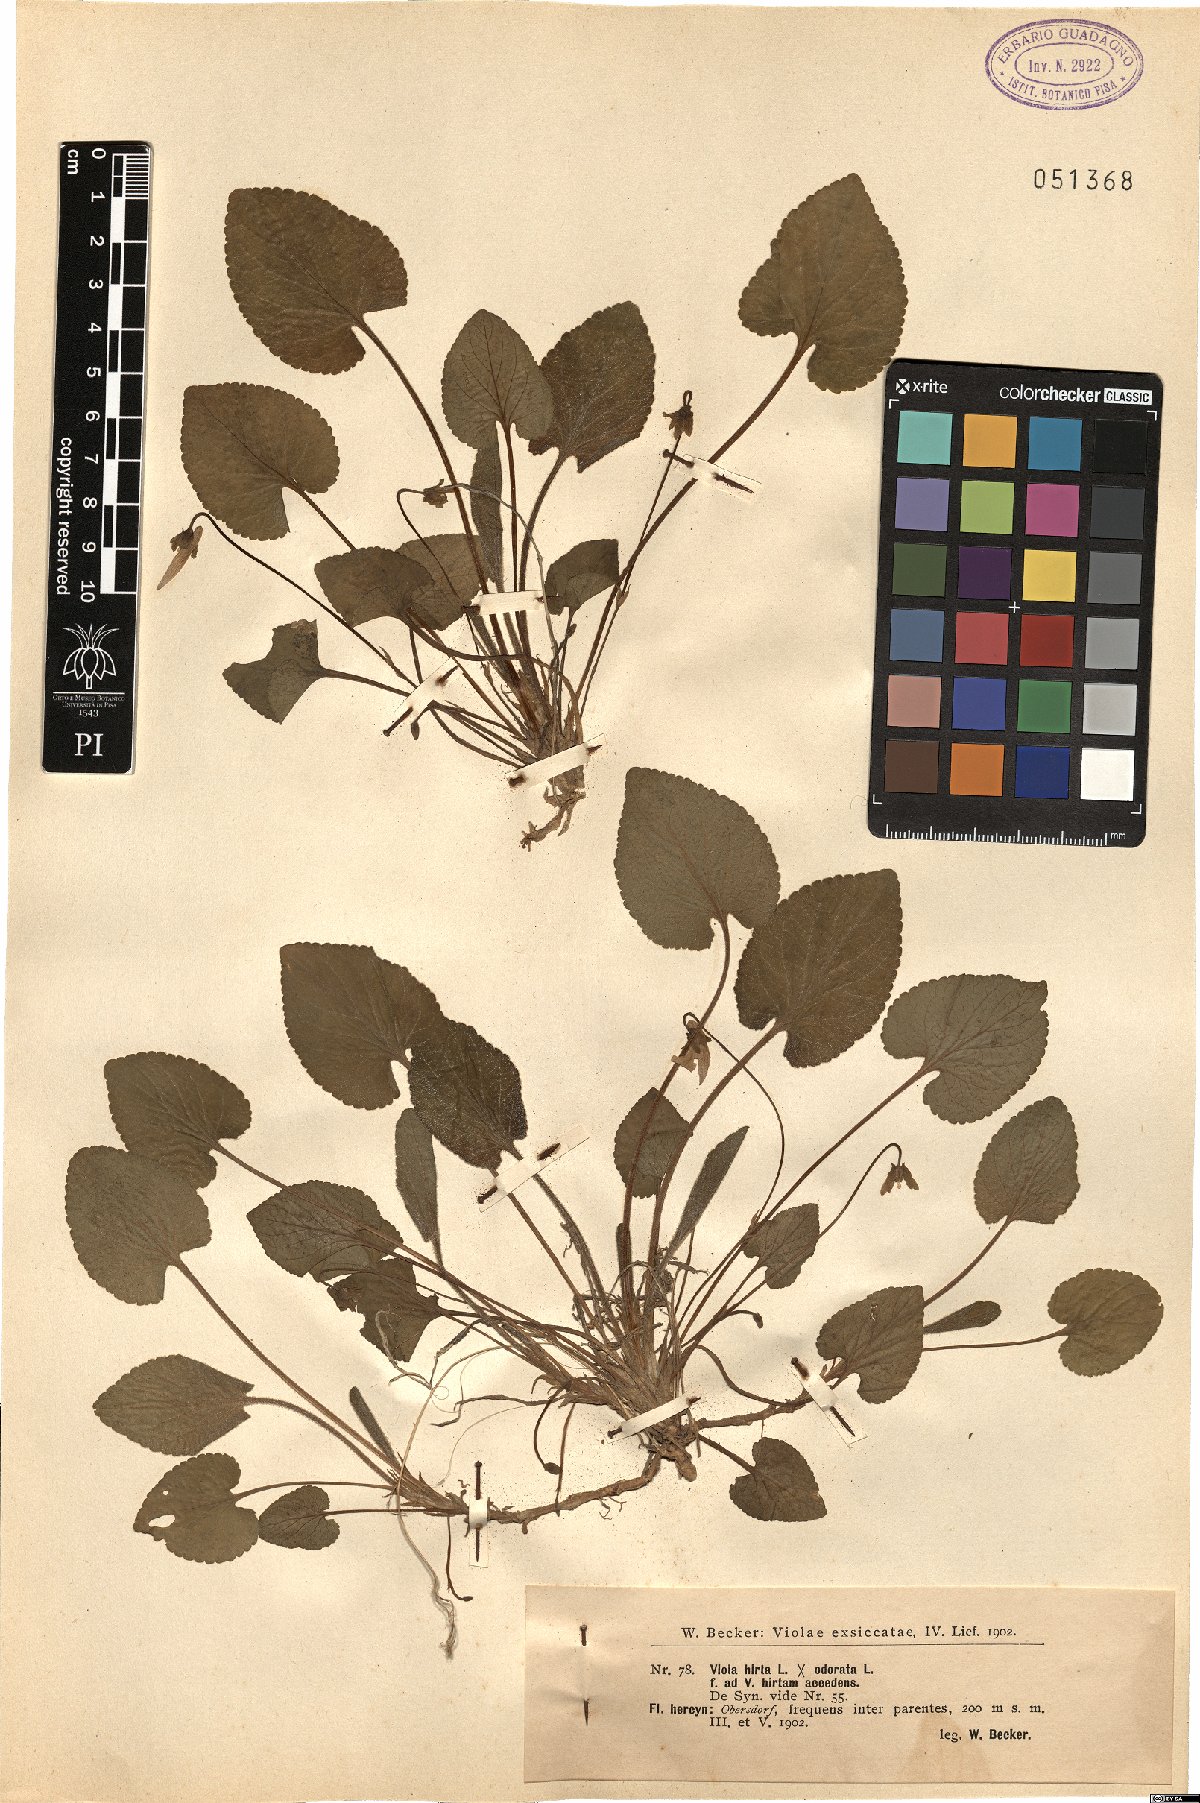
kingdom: Plantae
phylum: Tracheophyta
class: Magnoliopsida
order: Malpighiales
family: Violaceae
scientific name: Violaceae
